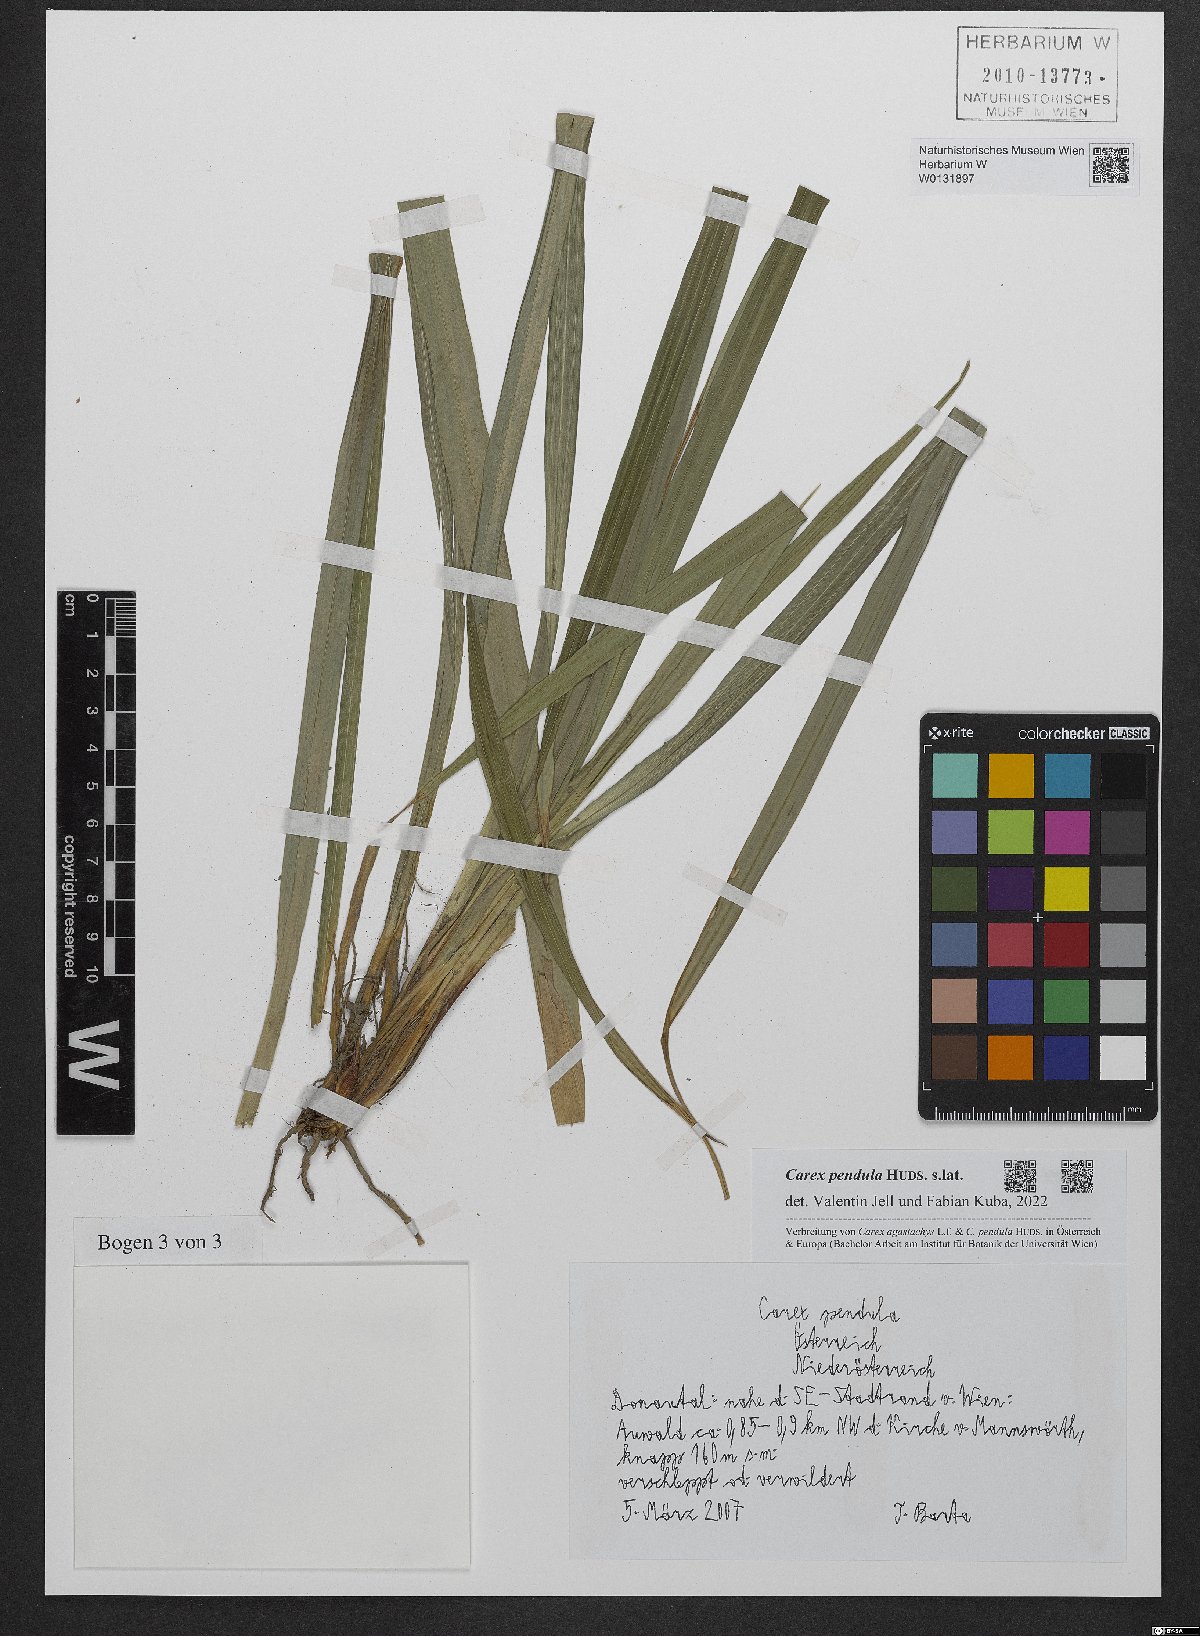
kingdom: Plantae
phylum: Tracheophyta
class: Liliopsida
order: Poales
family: Cyperaceae
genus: Carex
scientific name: Carex pendula
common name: Pendulous sedge
